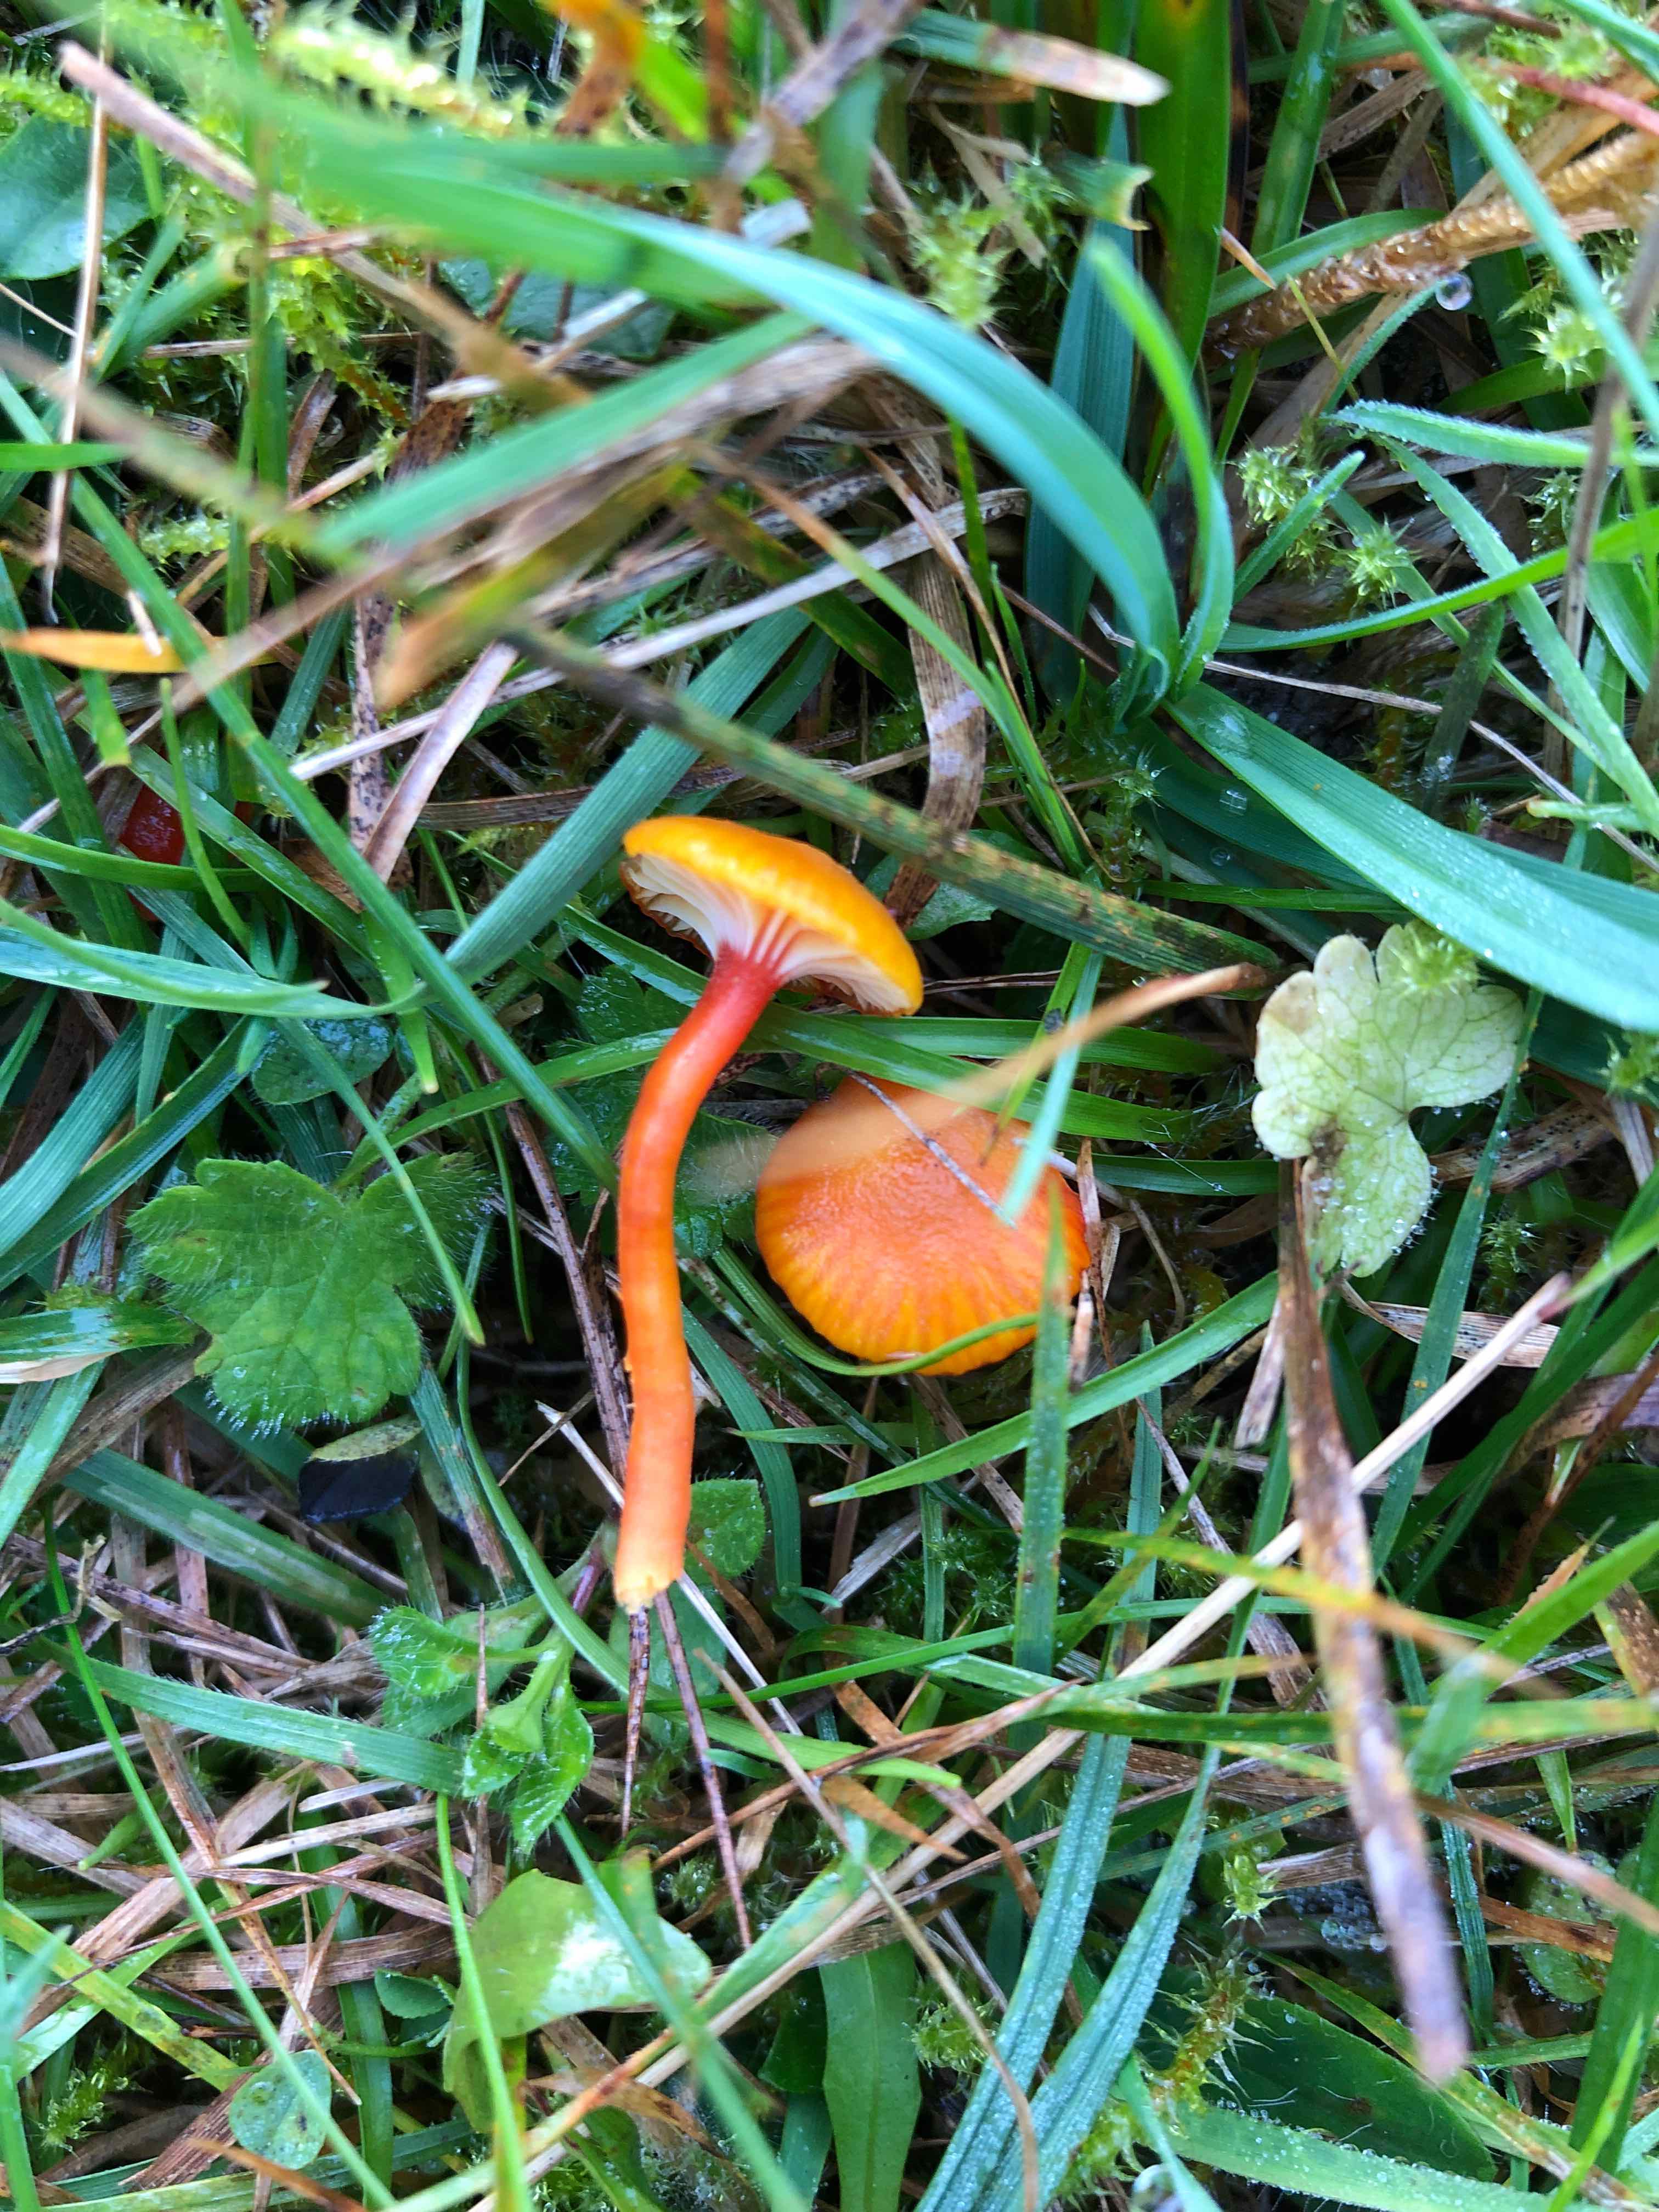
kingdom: Fungi
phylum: Basidiomycota
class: Agaricomycetes
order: Agaricales
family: Hygrophoraceae
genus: Hygrocybe
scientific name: Hygrocybe insipida
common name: liden vokshat
